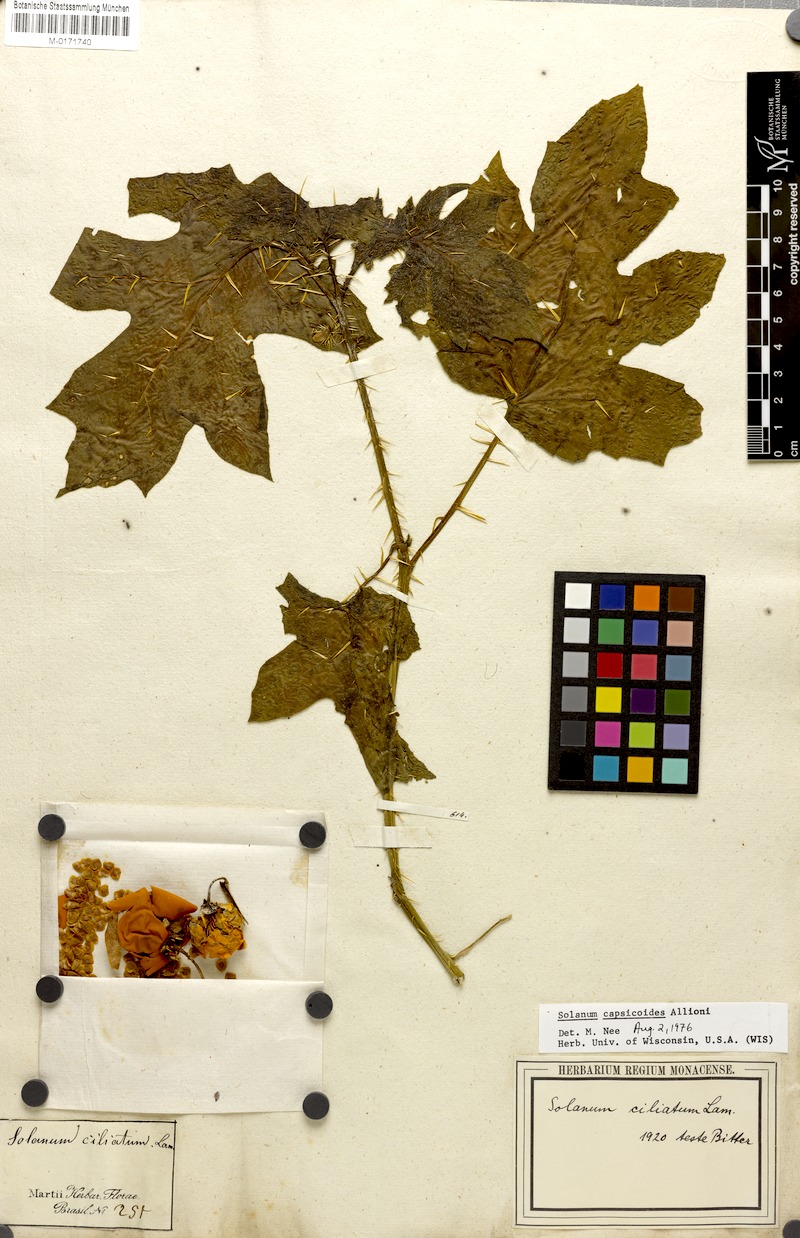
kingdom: Plantae
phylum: Tracheophyta
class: Magnoliopsida
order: Solanales
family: Solanaceae
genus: Solanum
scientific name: Solanum capsicoides
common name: Cockroach berry
